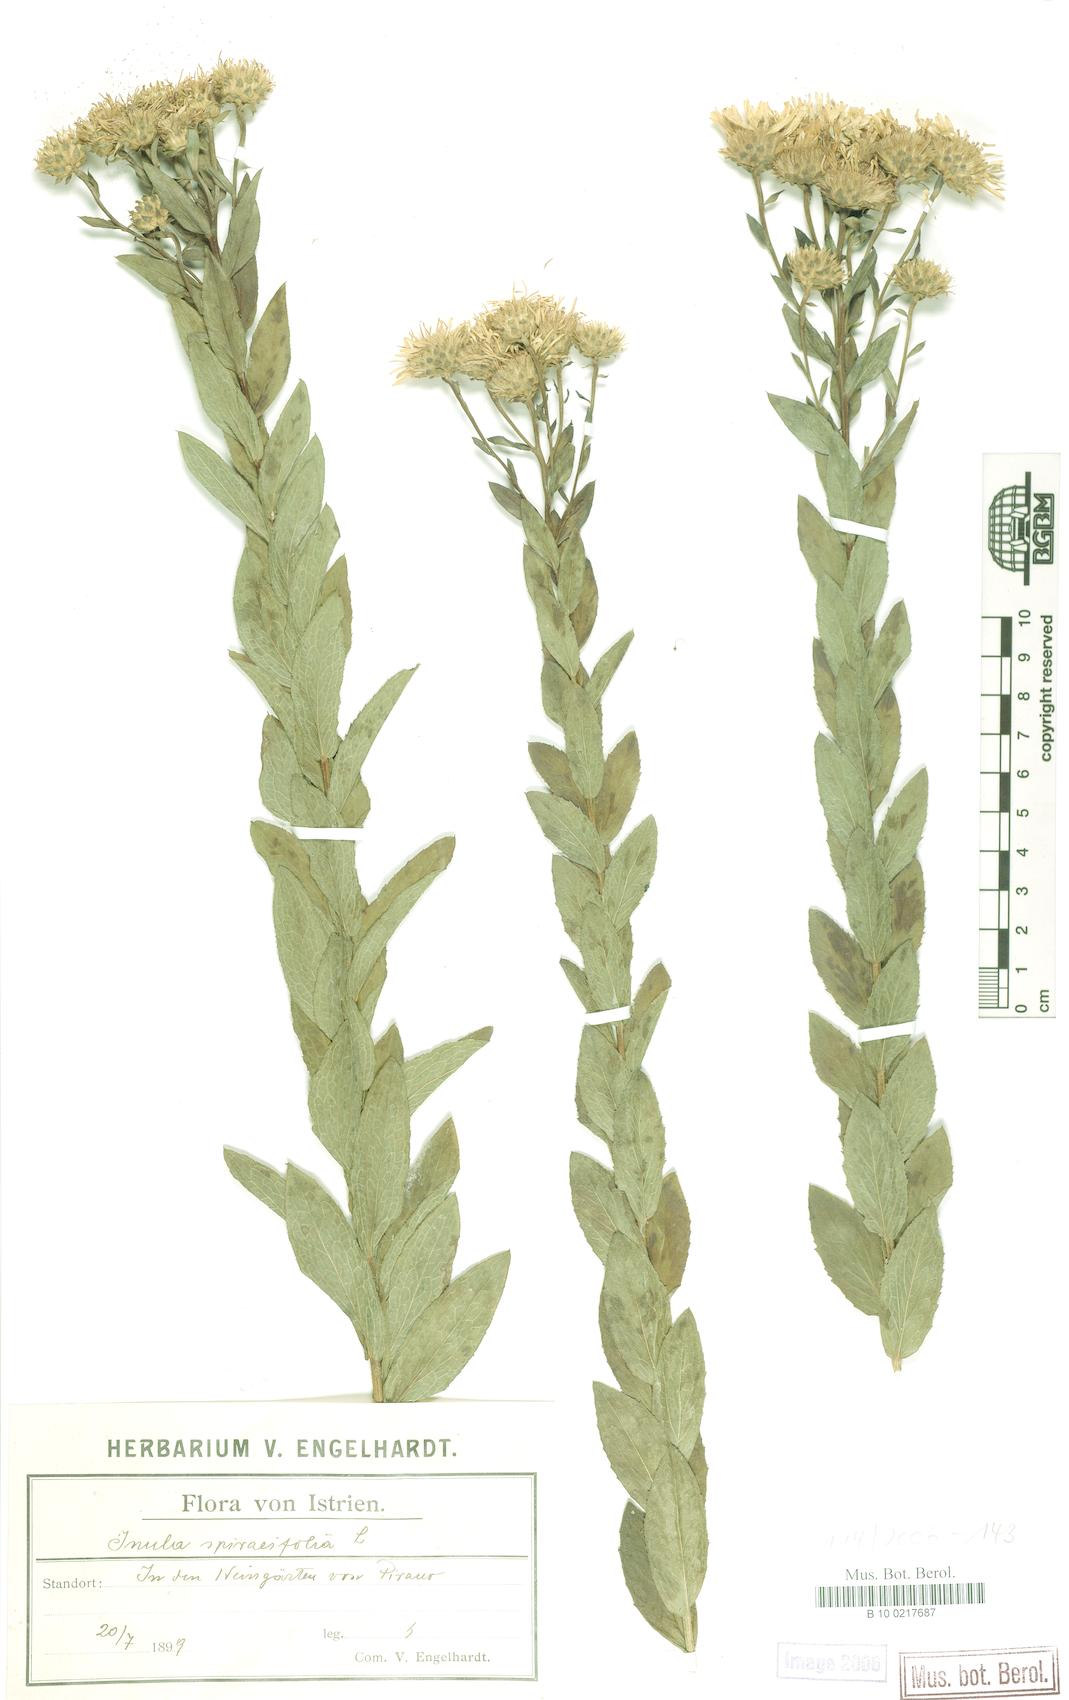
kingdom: Plantae
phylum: Tracheophyta
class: Magnoliopsida
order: Asterales
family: Asteraceae
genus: Pentanema
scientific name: Pentanema spiraeifolium
